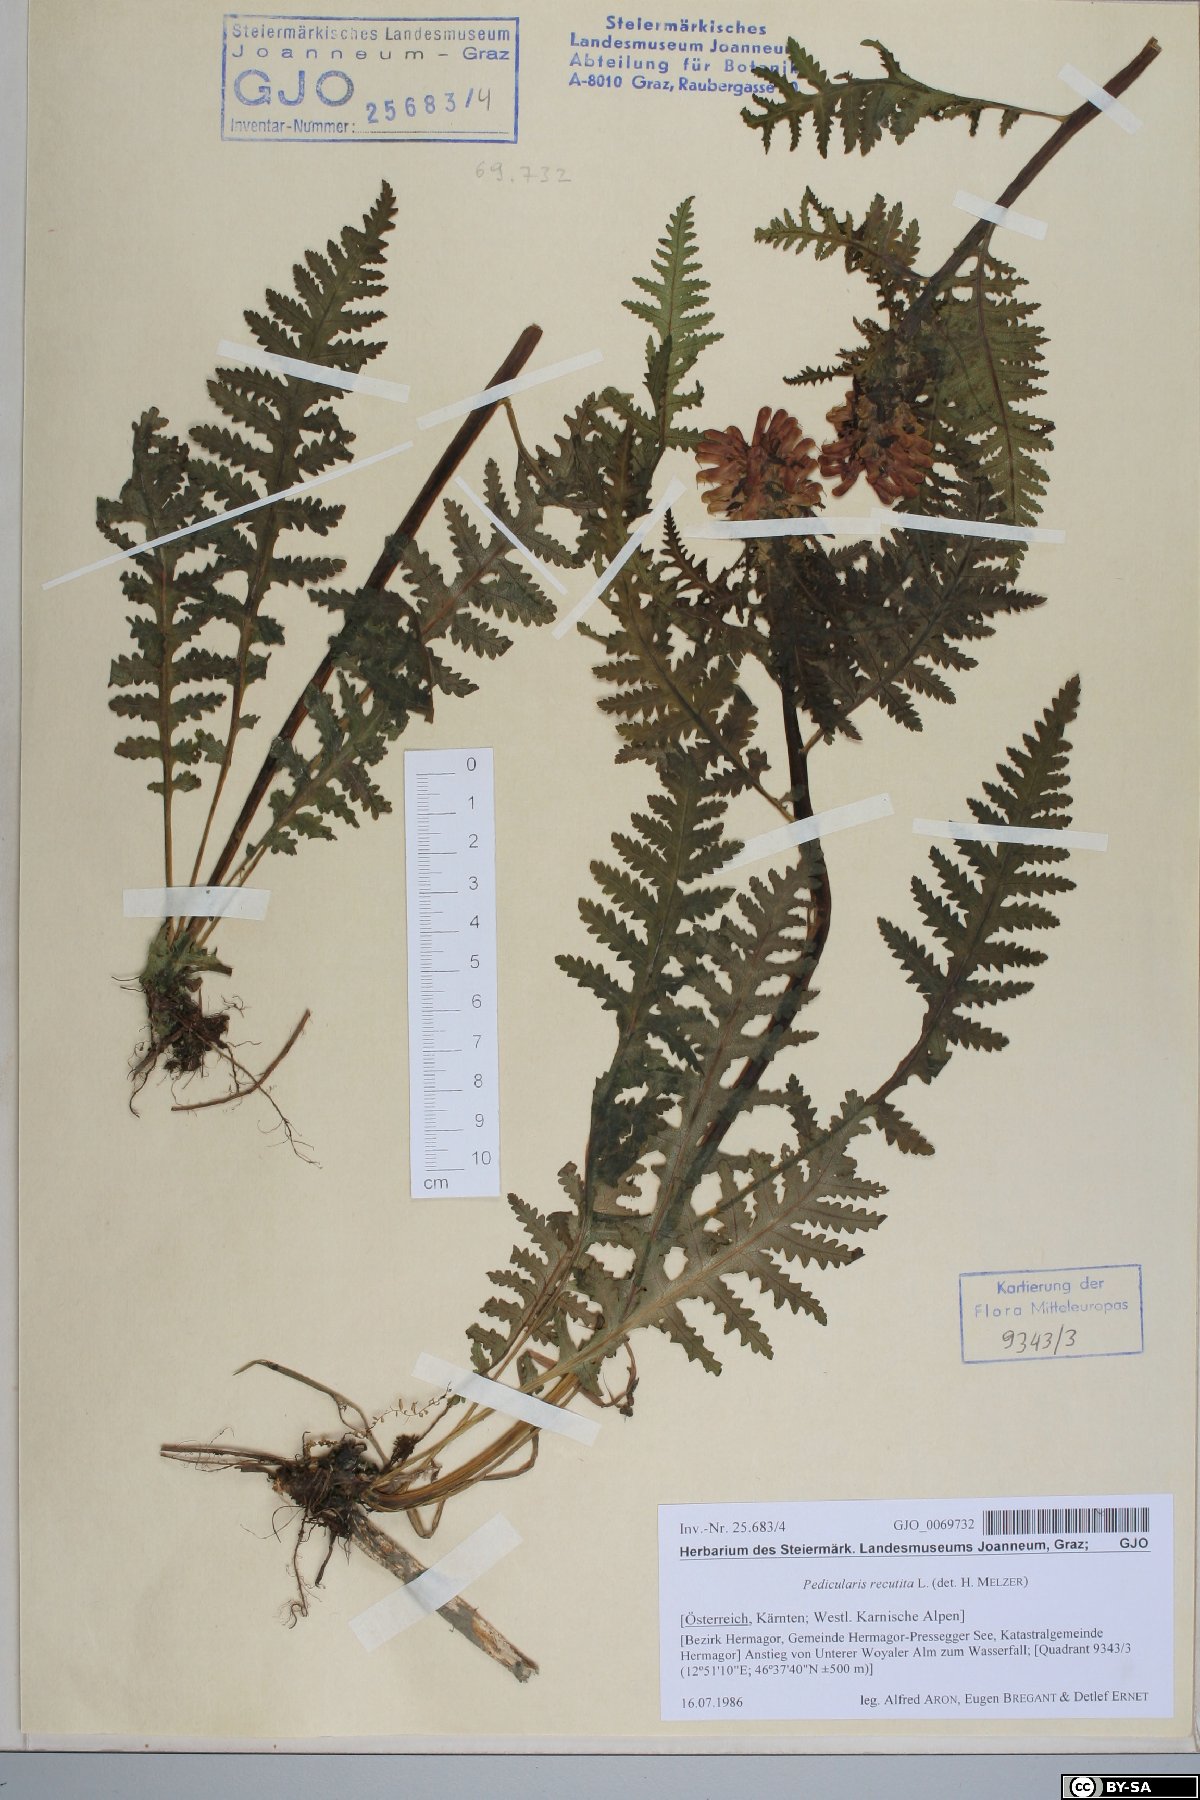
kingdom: Plantae
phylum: Tracheophyta
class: Magnoliopsida
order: Lamiales
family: Orobanchaceae
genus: Pedicularis
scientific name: Pedicularis recutita
